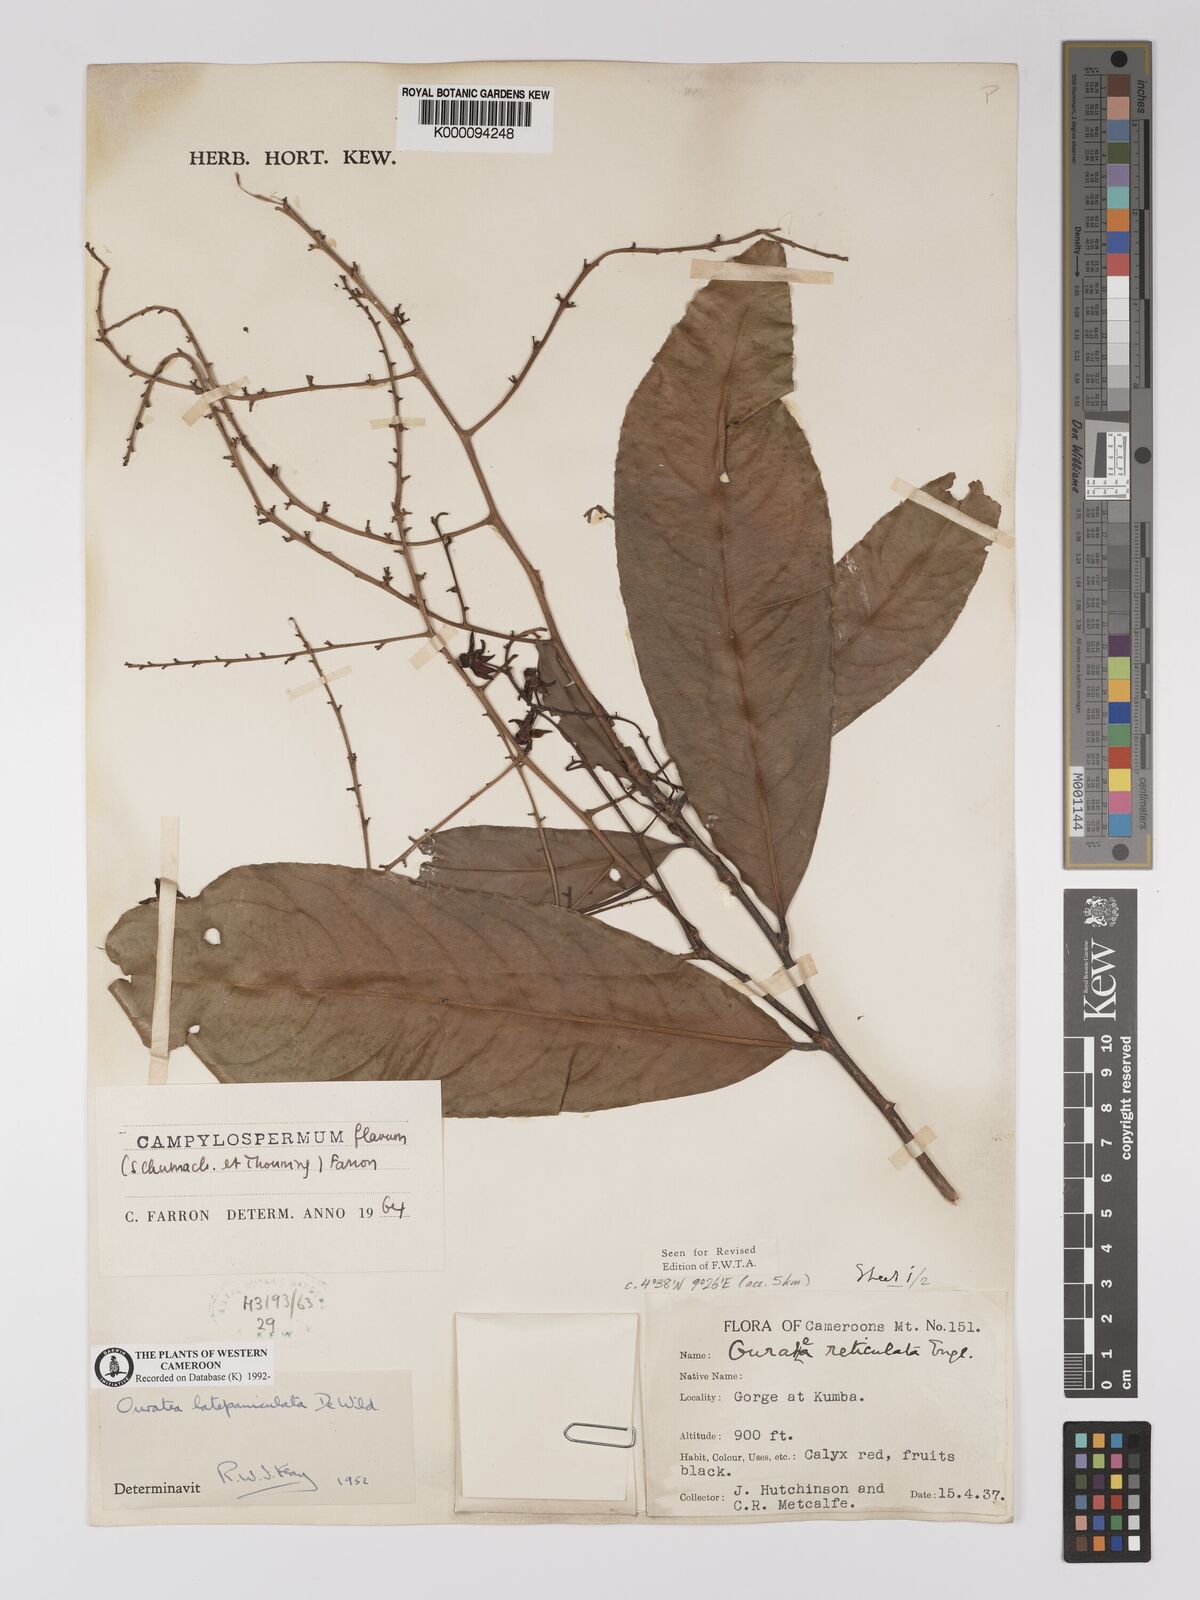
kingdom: Plantae
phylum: Tracheophyta
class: Magnoliopsida
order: Malpighiales
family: Ochnaceae
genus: Campylospermum
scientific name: Campylospermum flavum
